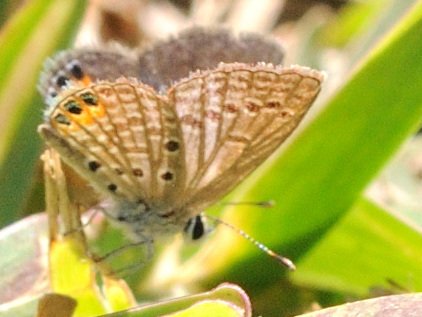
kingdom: Animalia
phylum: Arthropoda
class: Insecta
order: Lepidoptera
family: Lycaenidae
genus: Freyeria
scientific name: Freyeria trochylus
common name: Grass Jewel
